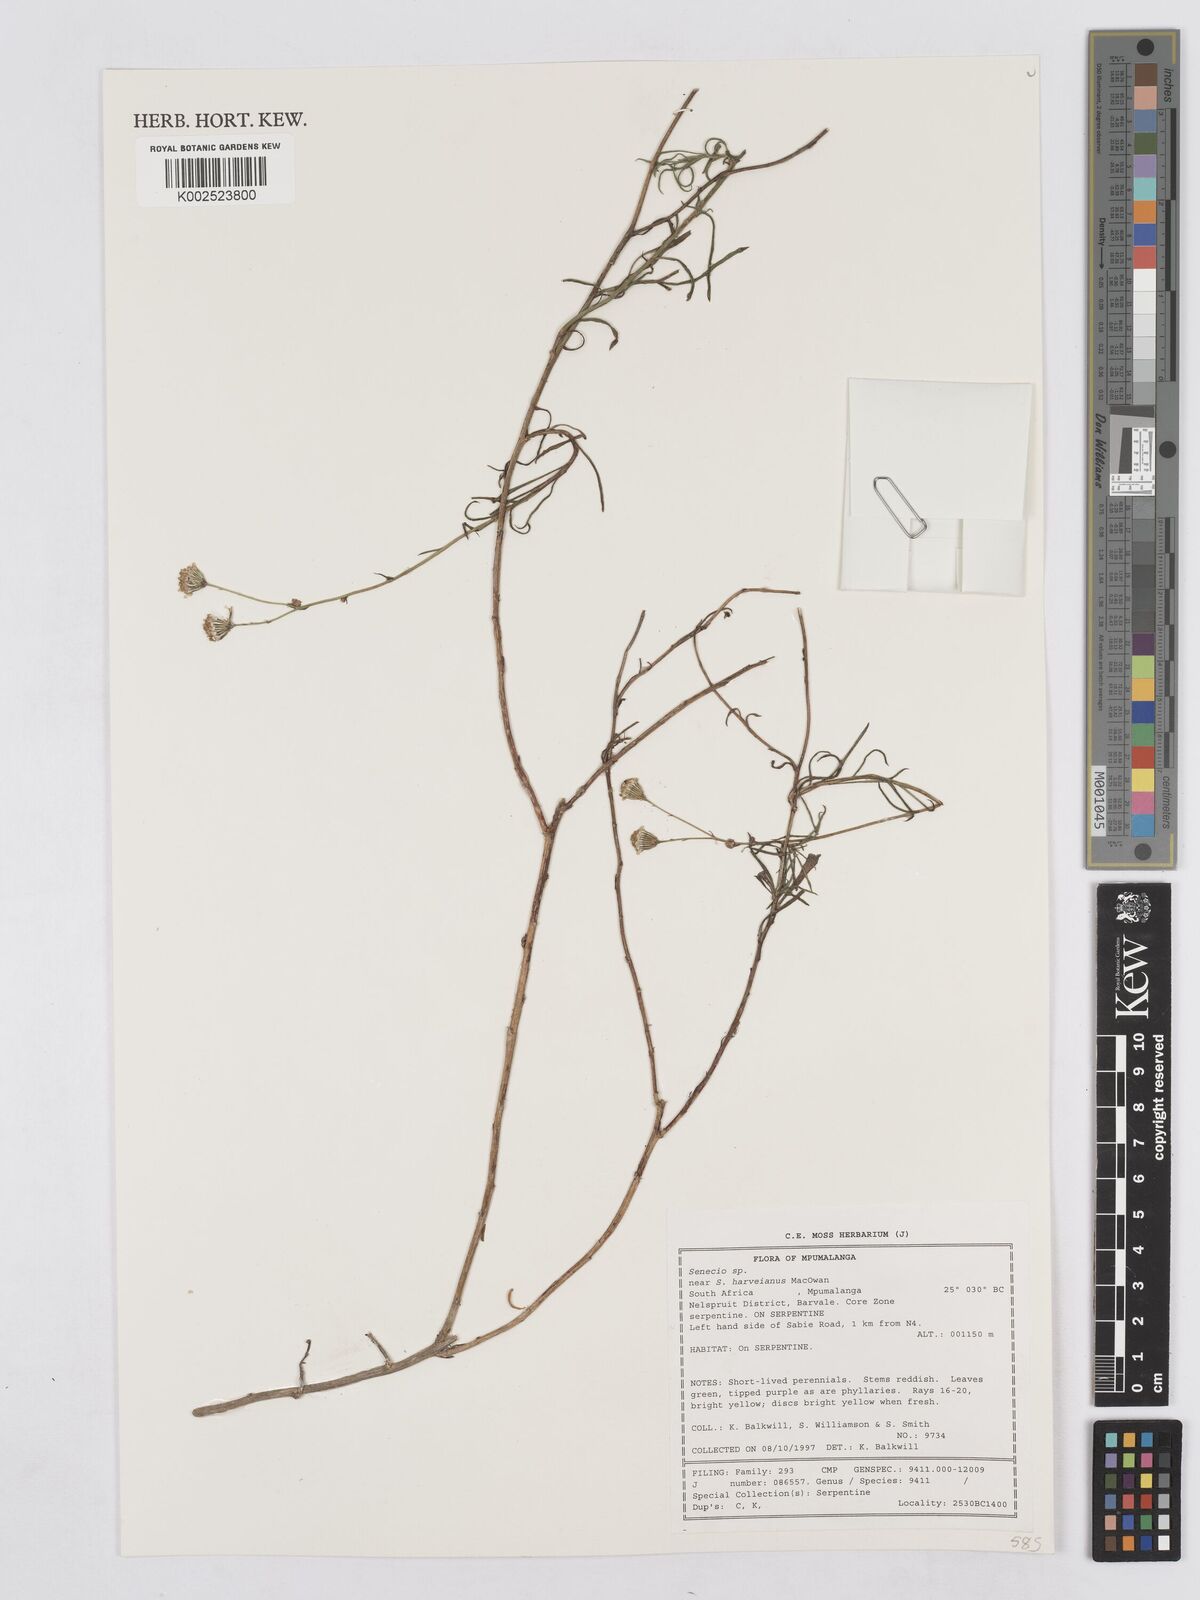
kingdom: Plantae
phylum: Tracheophyta
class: Magnoliopsida
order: Asterales
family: Asteraceae
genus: Senecio
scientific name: Senecio harveyanus
